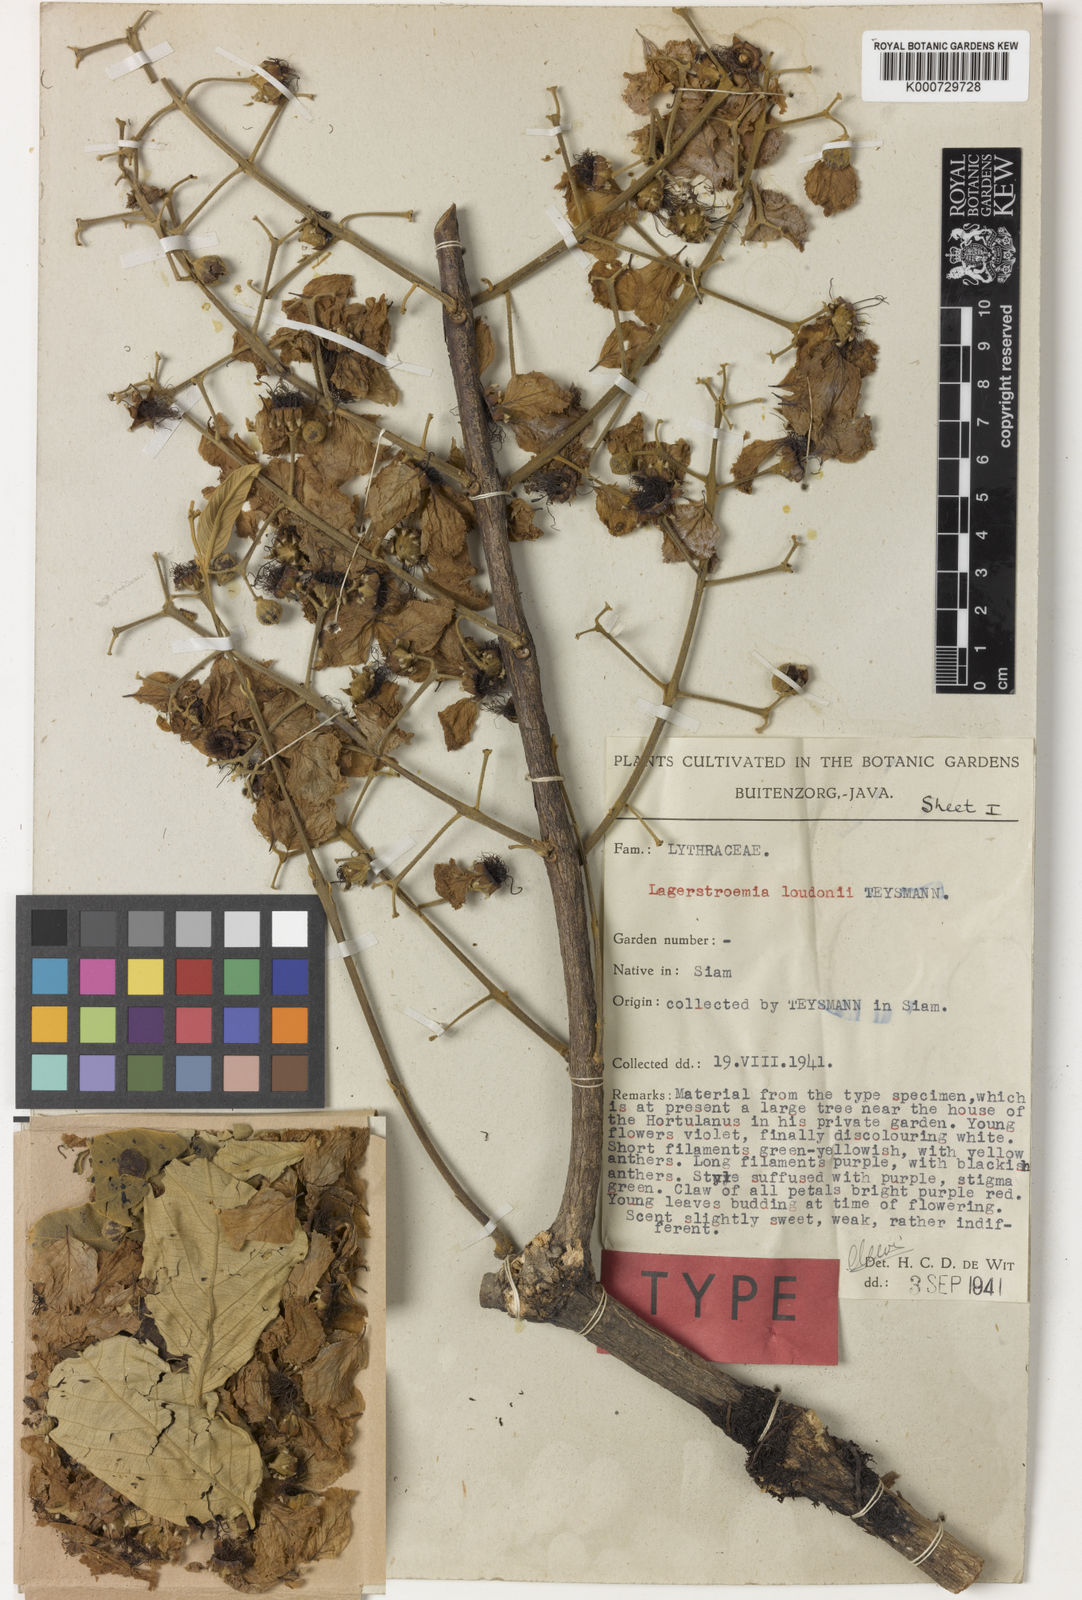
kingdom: Plantae
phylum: Tracheophyta
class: Magnoliopsida
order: Myrtales
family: Lythraceae
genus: Lagerstroemia
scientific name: Lagerstroemia loudonii
